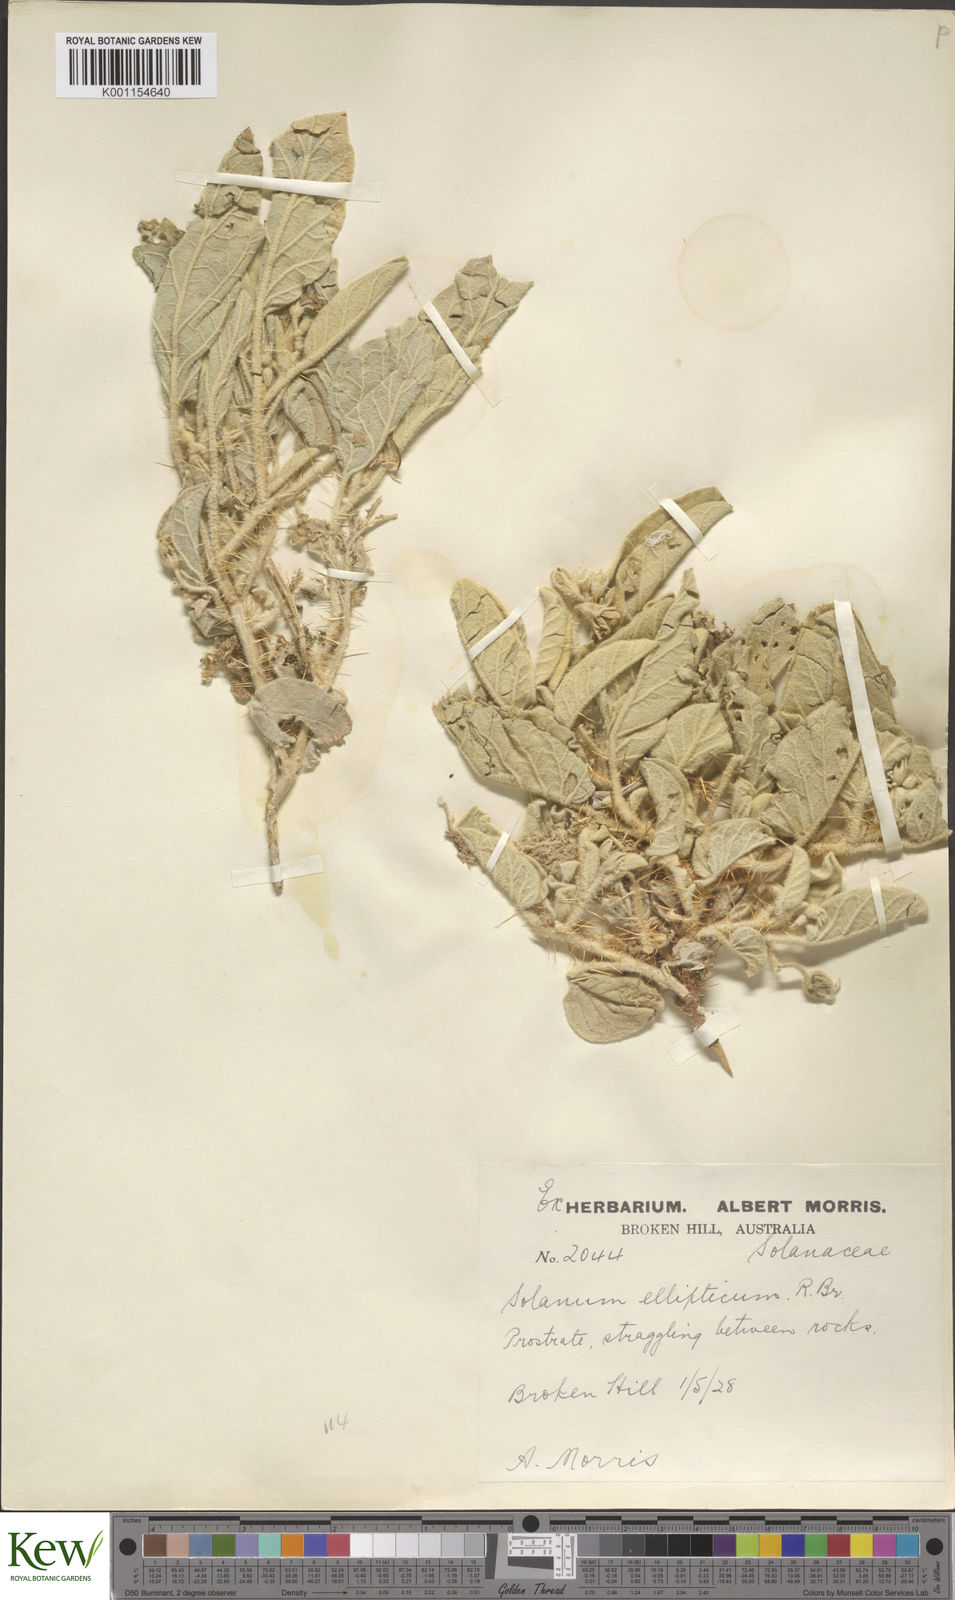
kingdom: Plantae
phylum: Tracheophyta
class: Magnoliopsida
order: Solanales
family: Solanaceae
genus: Solanum
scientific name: Solanum ellipticum
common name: Potato-bush
